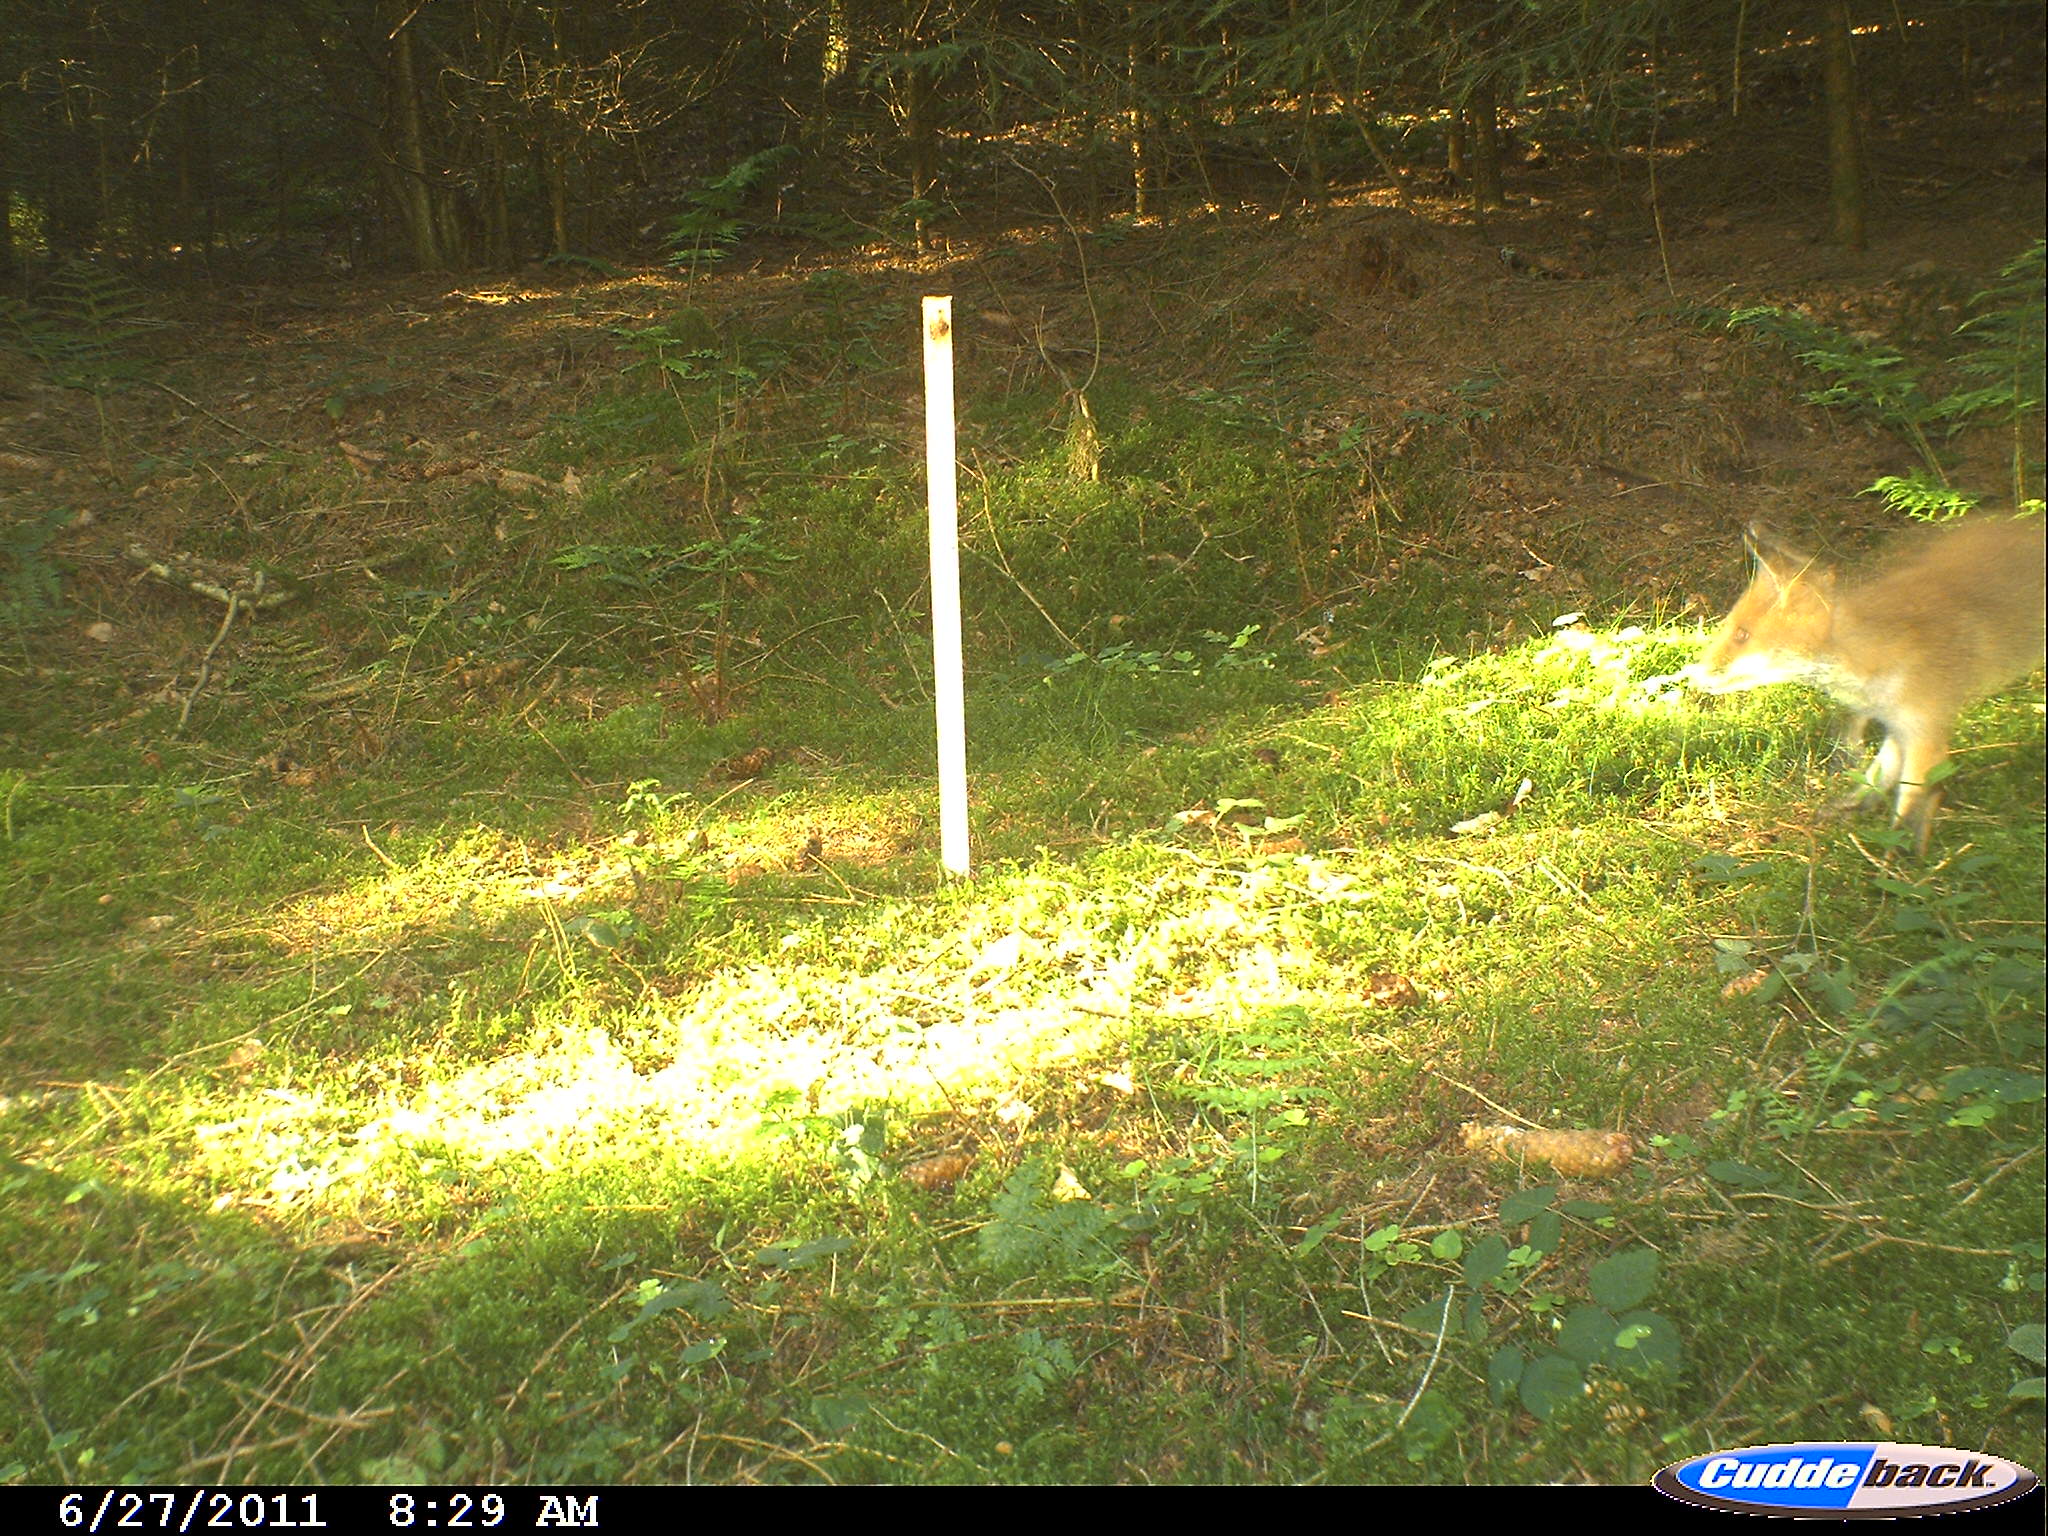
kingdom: Animalia
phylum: Chordata
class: Mammalia
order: Carnivora
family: Canidae
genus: Vulpes
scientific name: Vulpes vulpes
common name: Red fox
